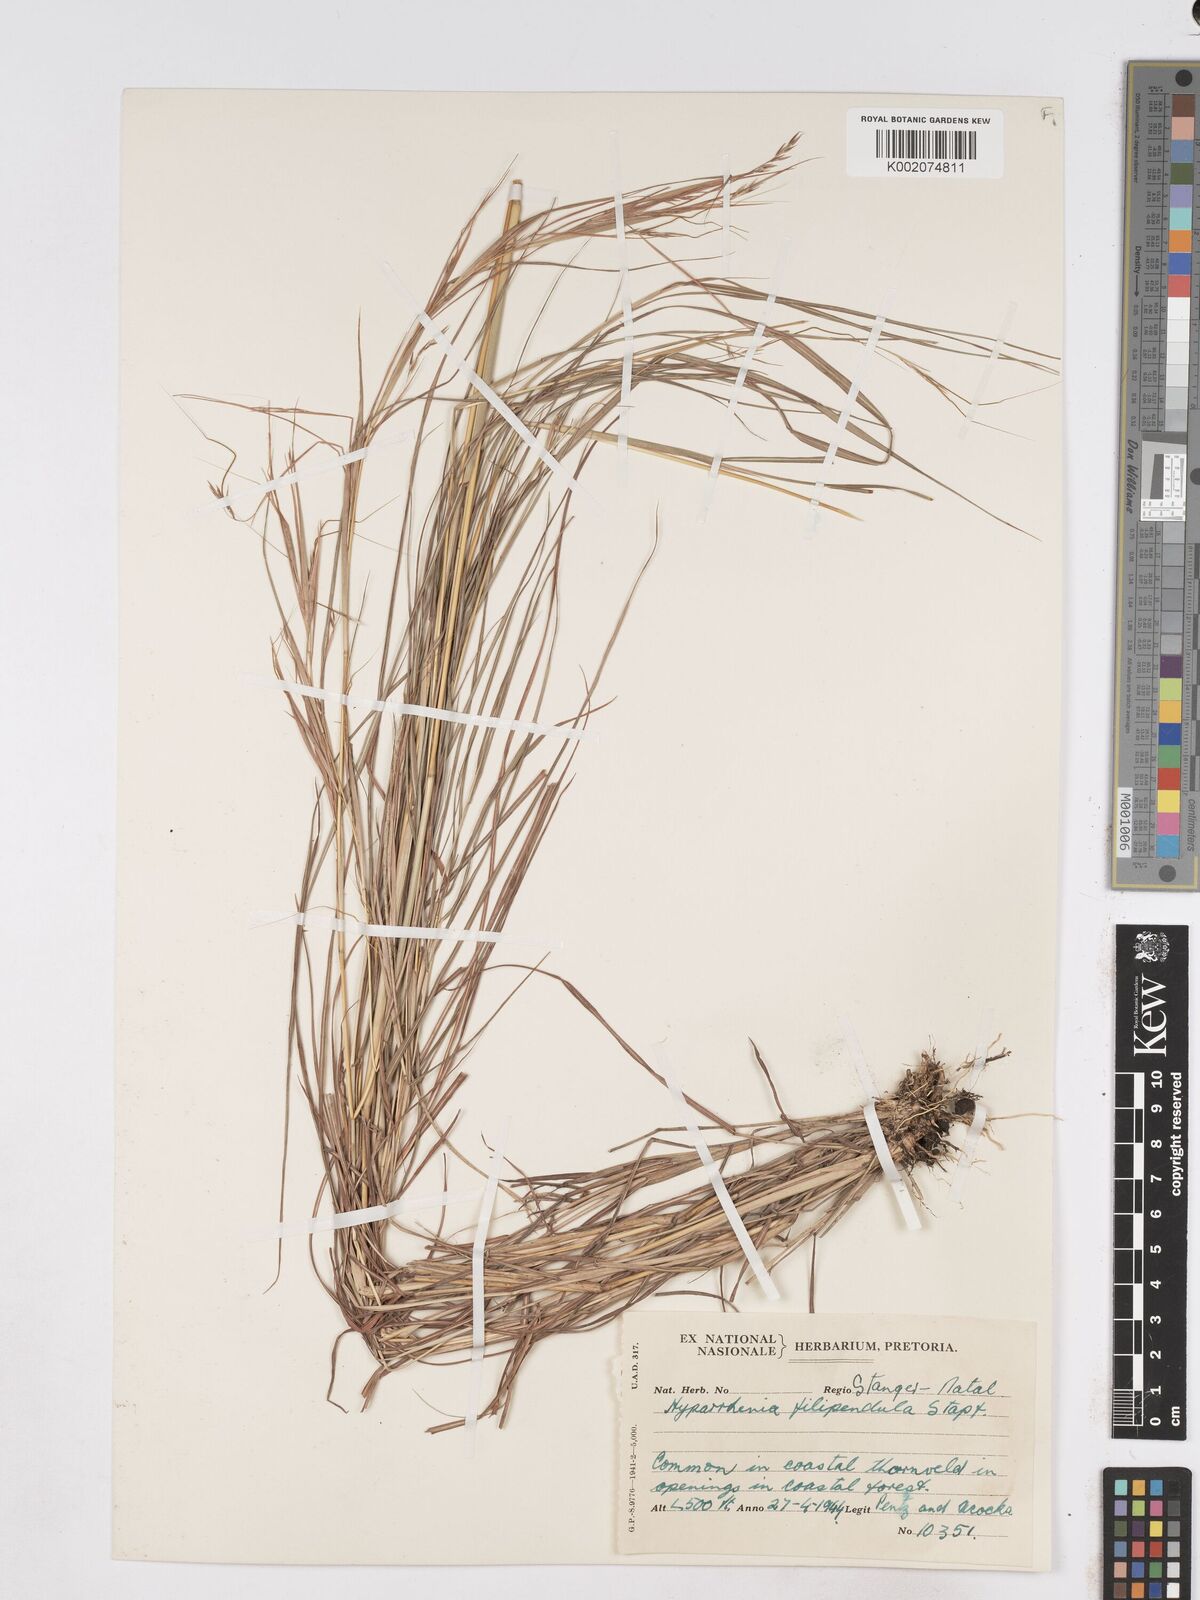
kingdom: Plantae
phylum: Tracheophyta
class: Liliopsida
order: Poales
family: Poaceae
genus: Hyparrhenia
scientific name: Hyparrhenia filipendula
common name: Tambookie grass
